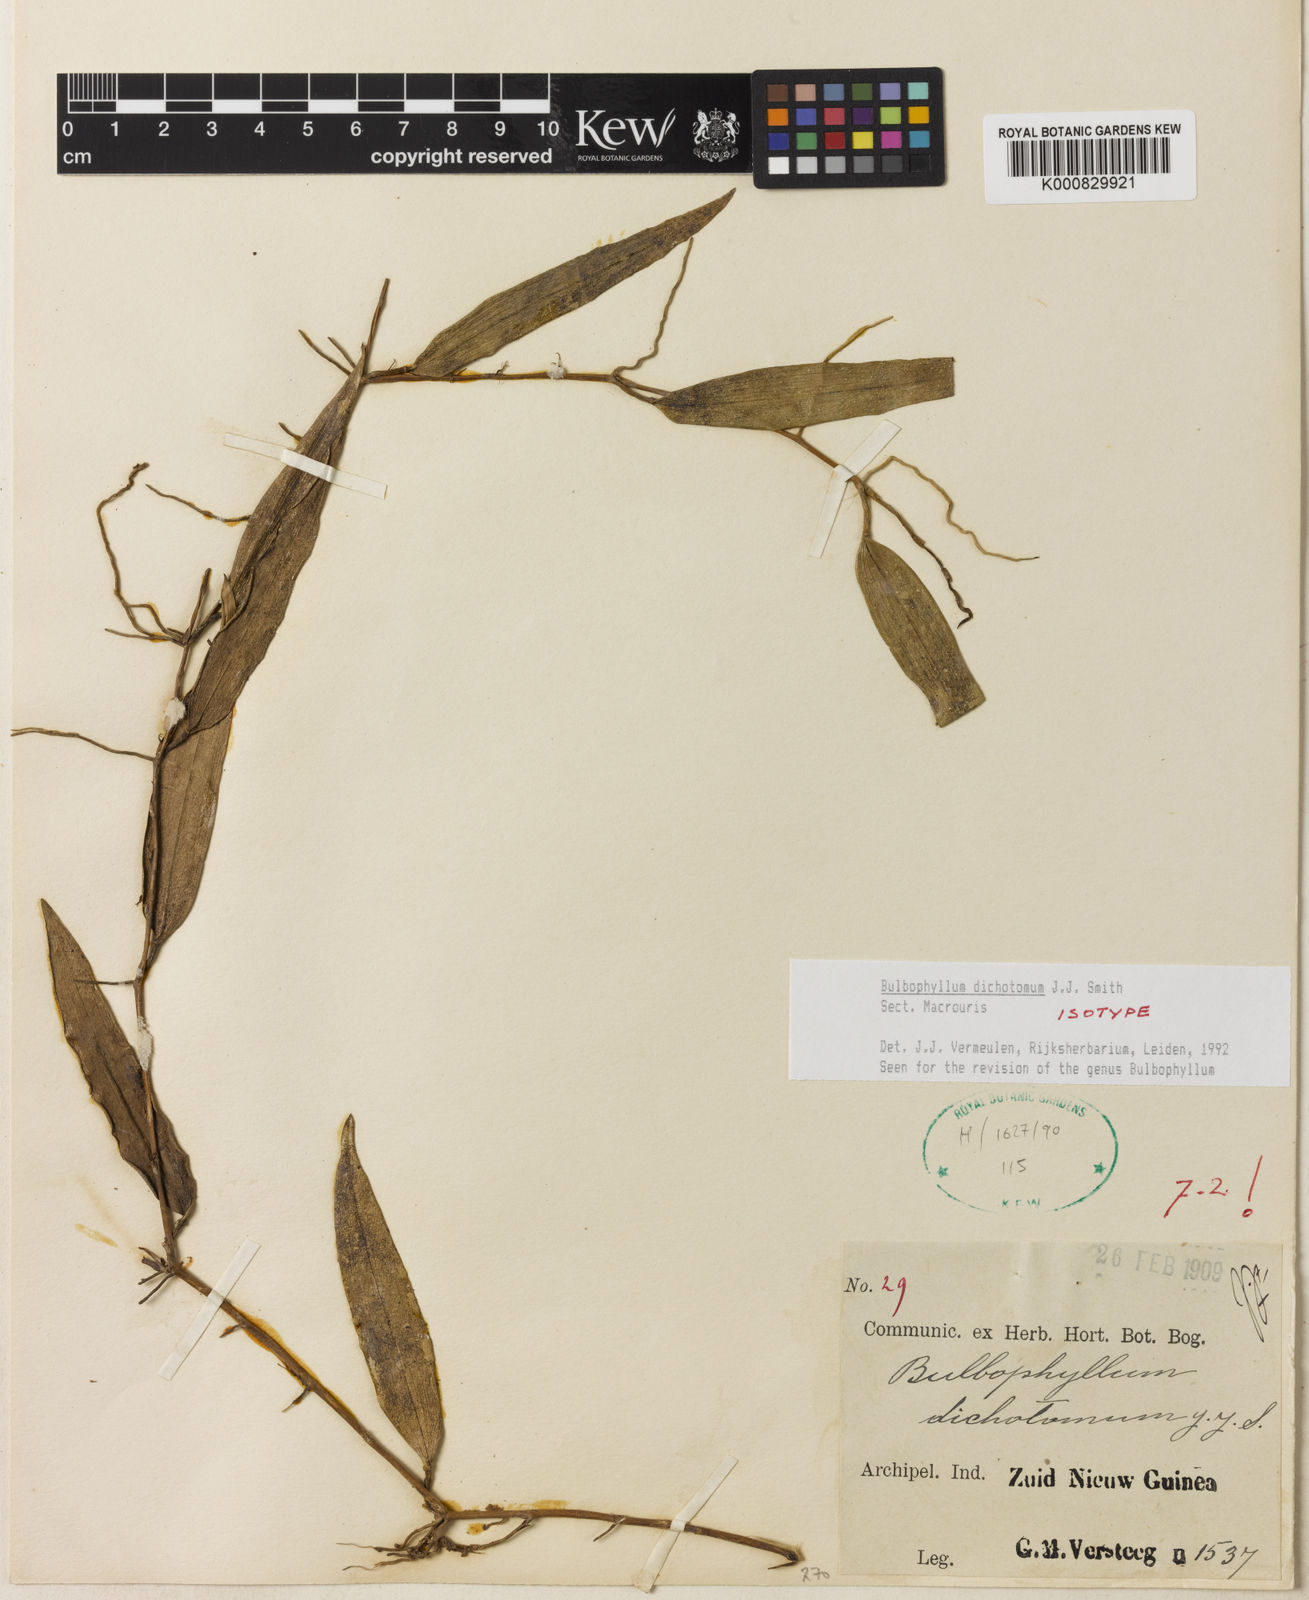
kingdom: Plantae
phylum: Tracheophyta
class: Liliopsida
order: Asparagales
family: Orchidaceae
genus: Bulbophyllum
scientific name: Bulbophyllum
